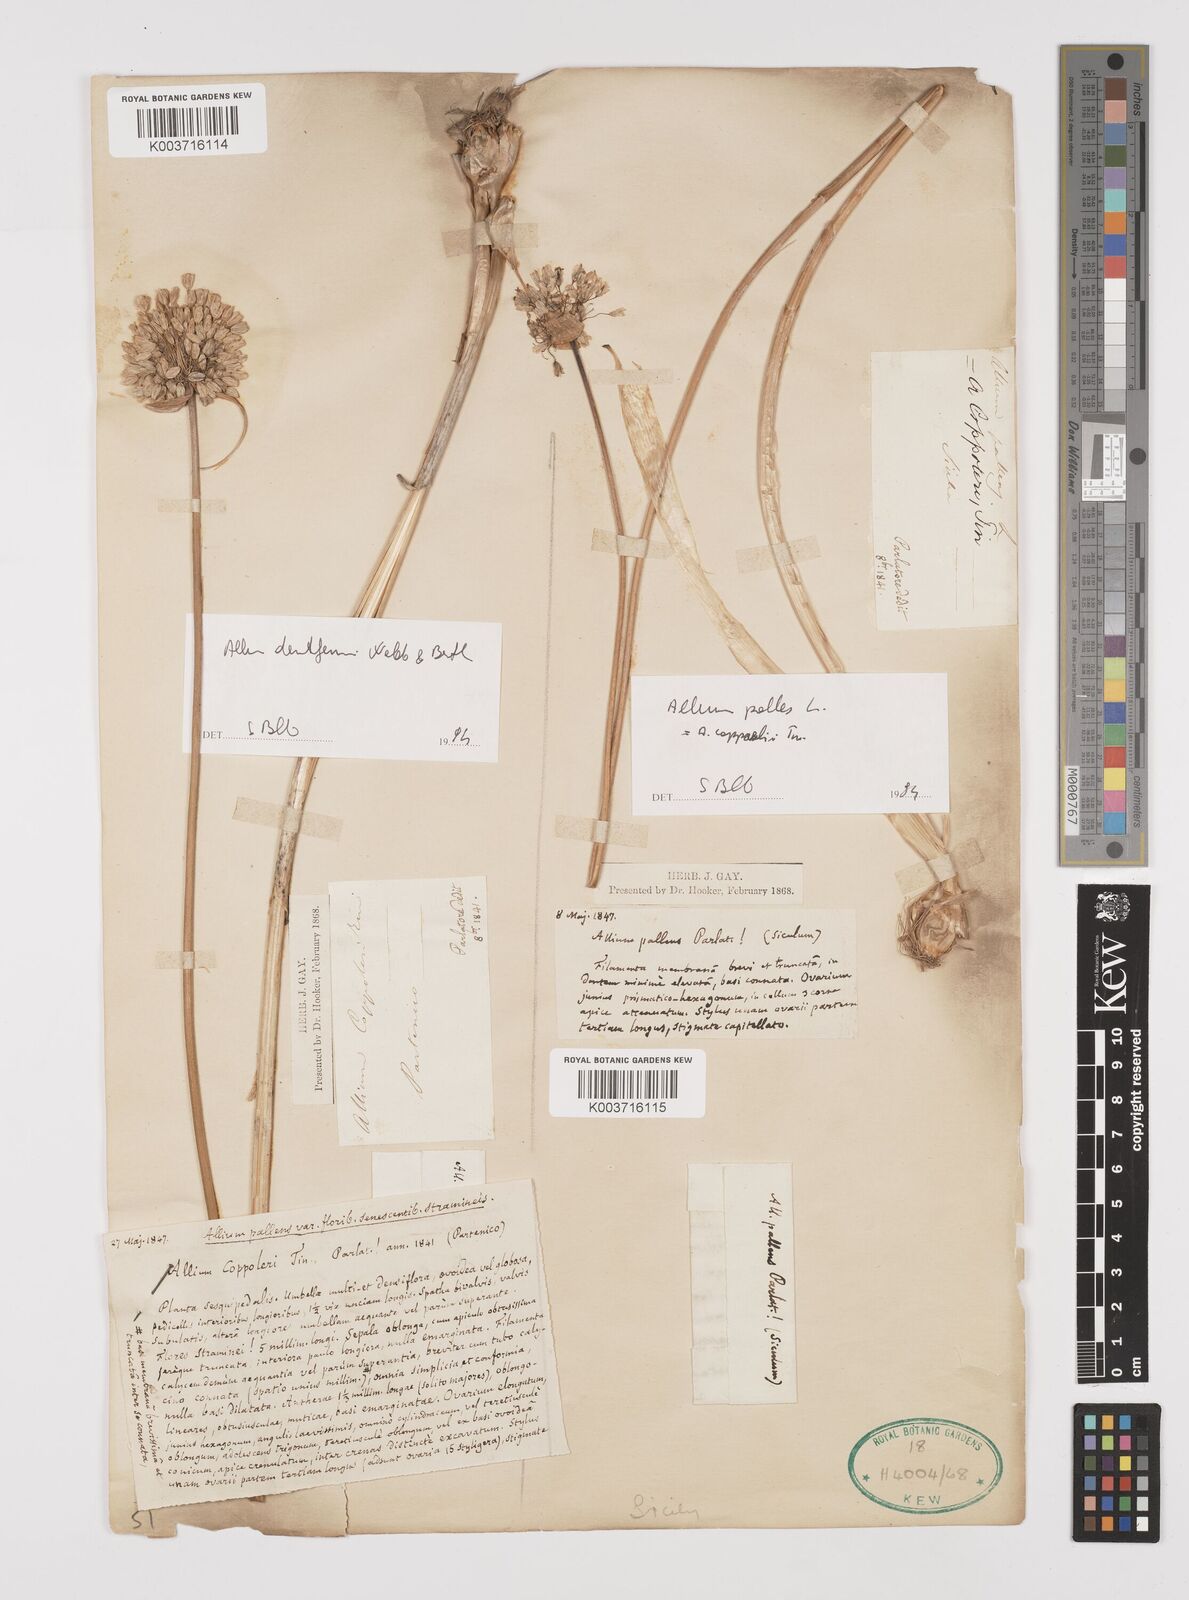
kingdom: Plantae
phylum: Tracheophyta
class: Liliopsida
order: Asparagales
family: Amaryllidaceae
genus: Allium
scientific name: Allium flavum
